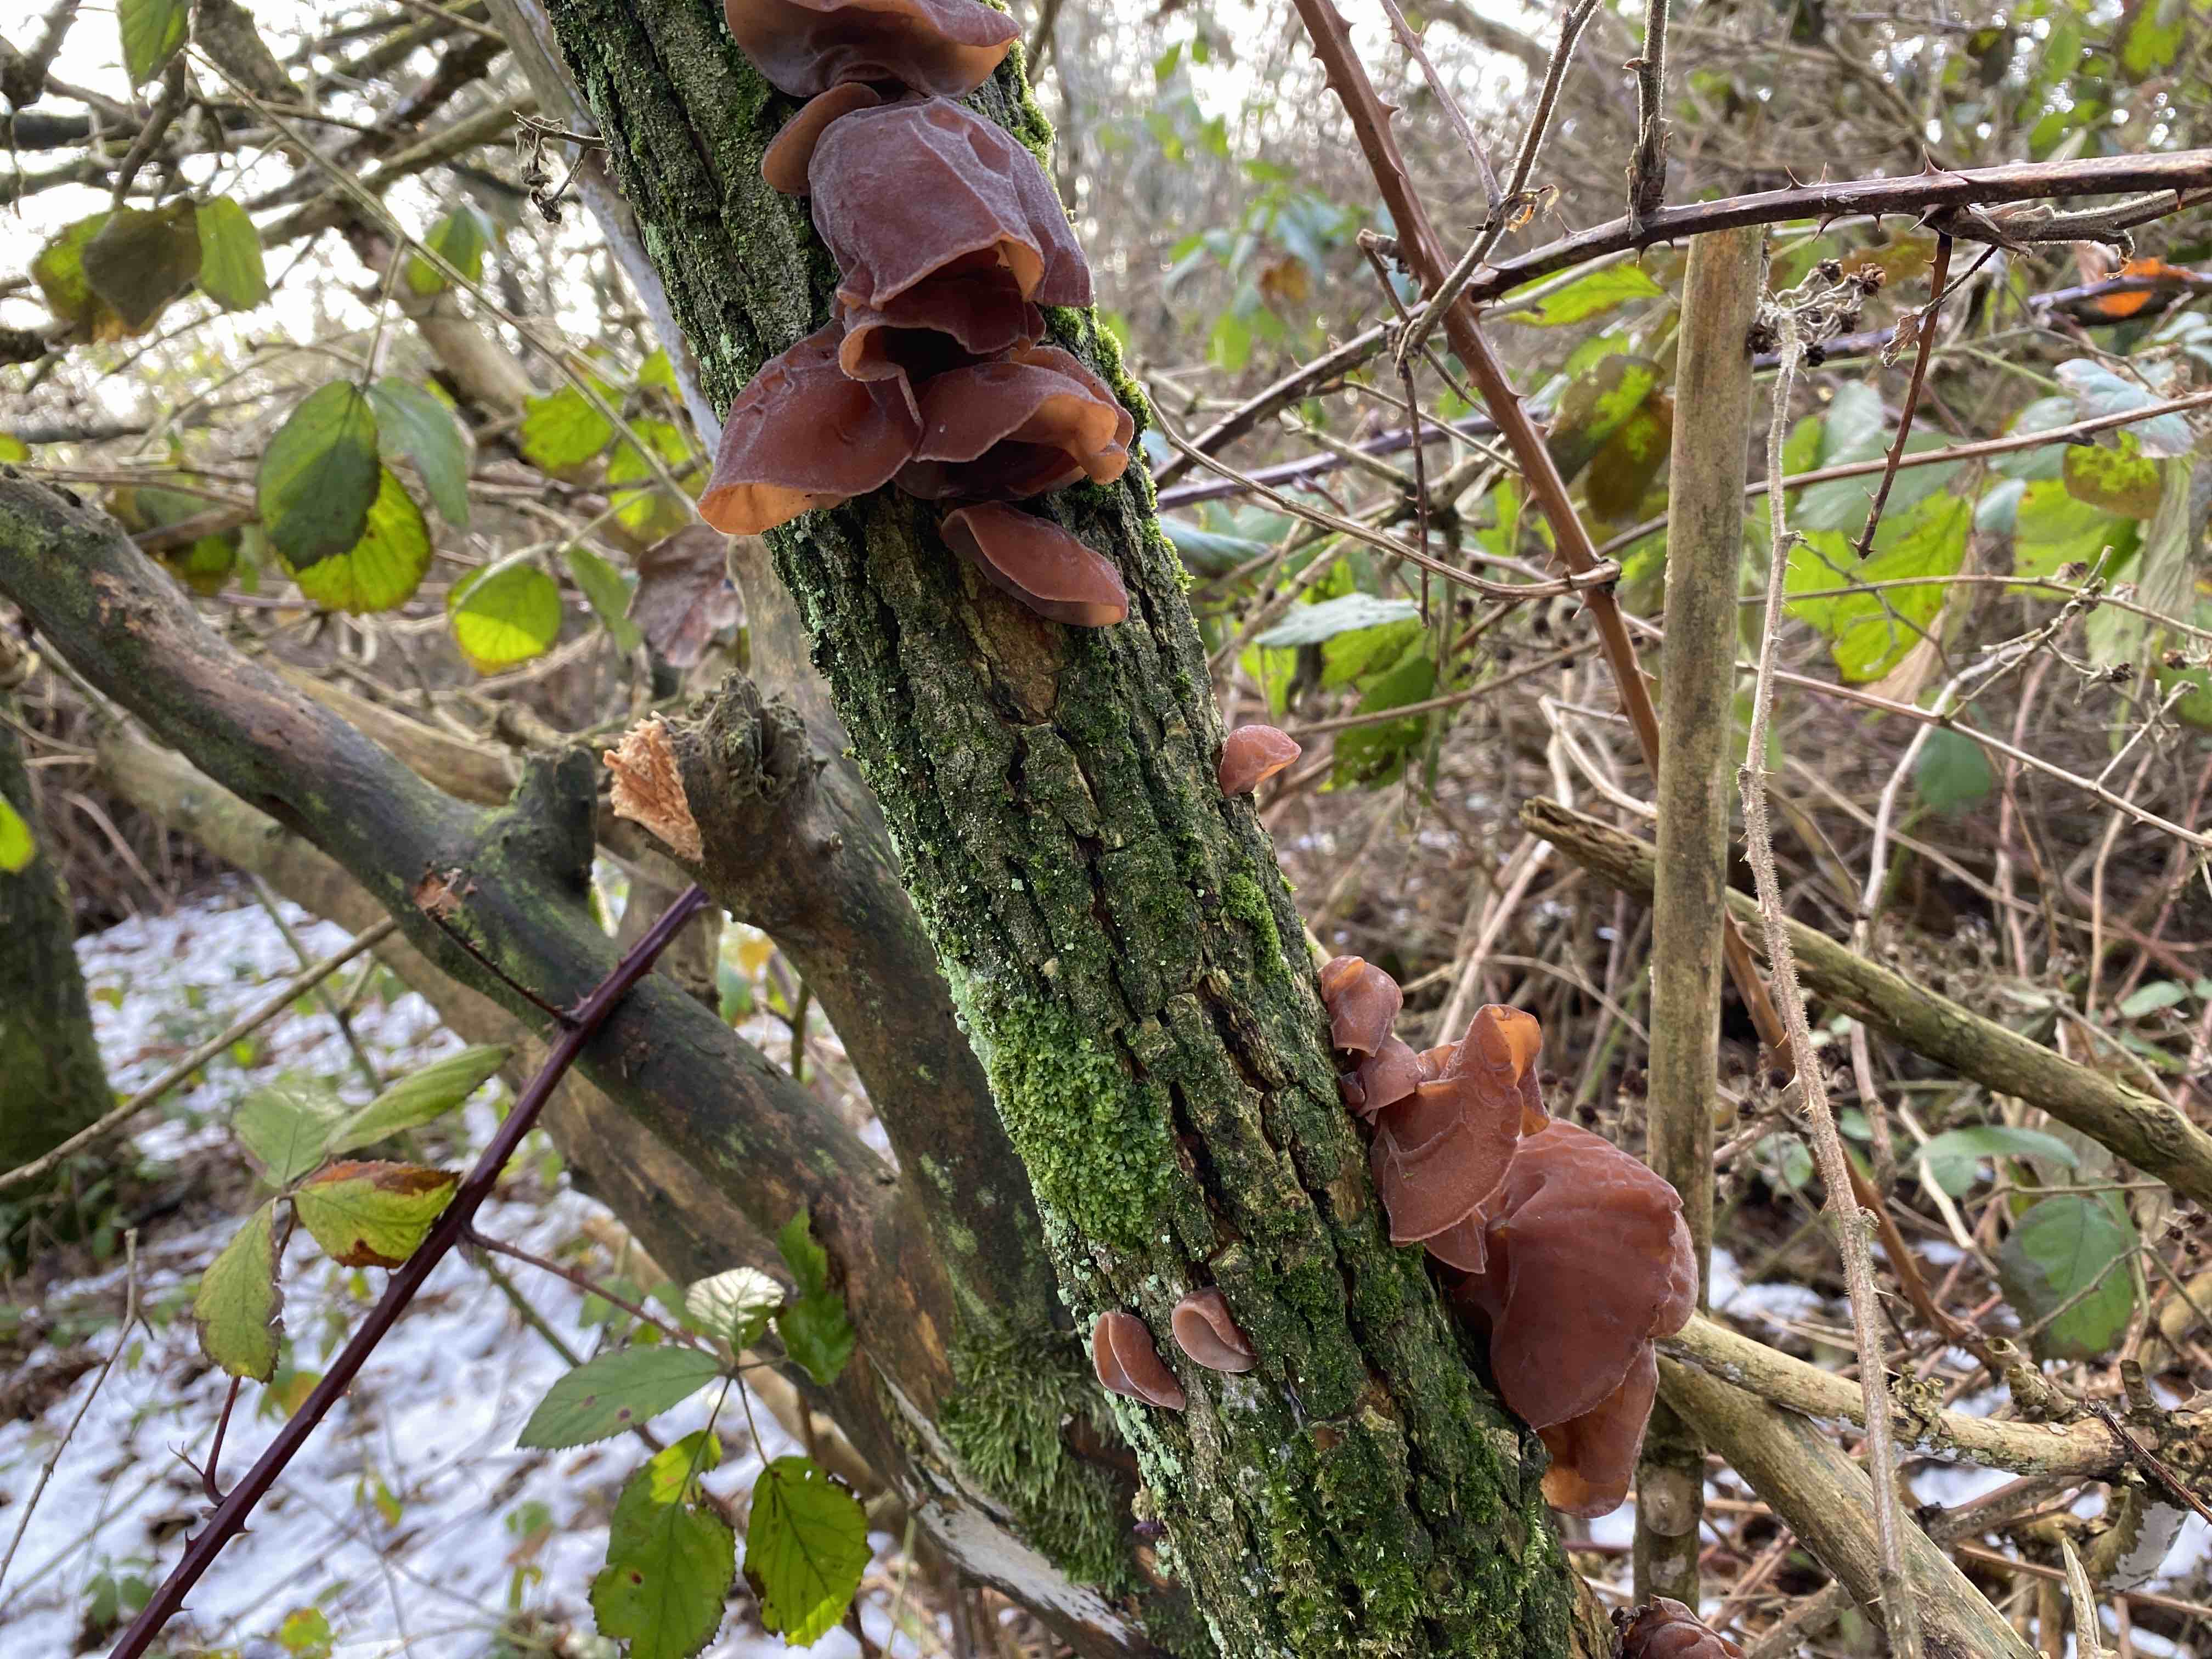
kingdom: Fungi
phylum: Basidiomycota
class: Agaricomycetes
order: Auriculariales
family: Auriculariaceae
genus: Auricularia
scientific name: Auricularia auricula-judae
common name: almindelig judasøre
